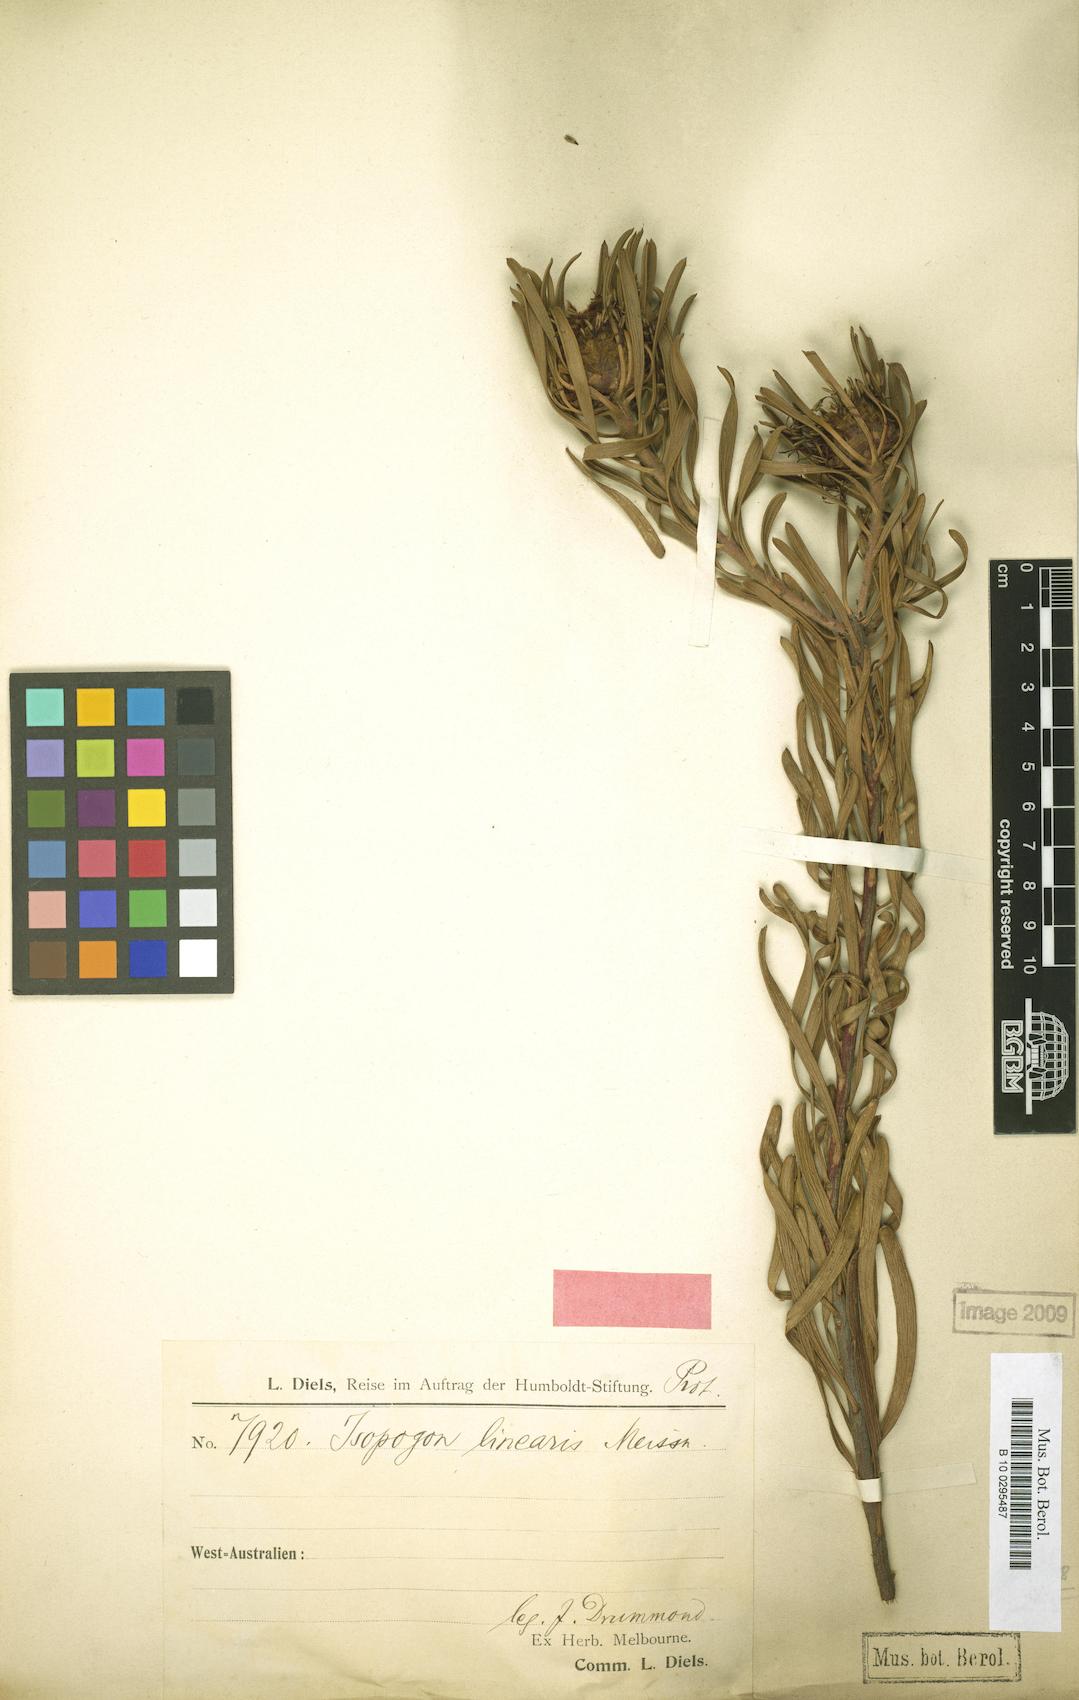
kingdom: Plantae
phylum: Tracheophyta
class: Magnoliopsida
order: Proteales
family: Proteaceae
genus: Isopogon
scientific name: Isopogon linearis
